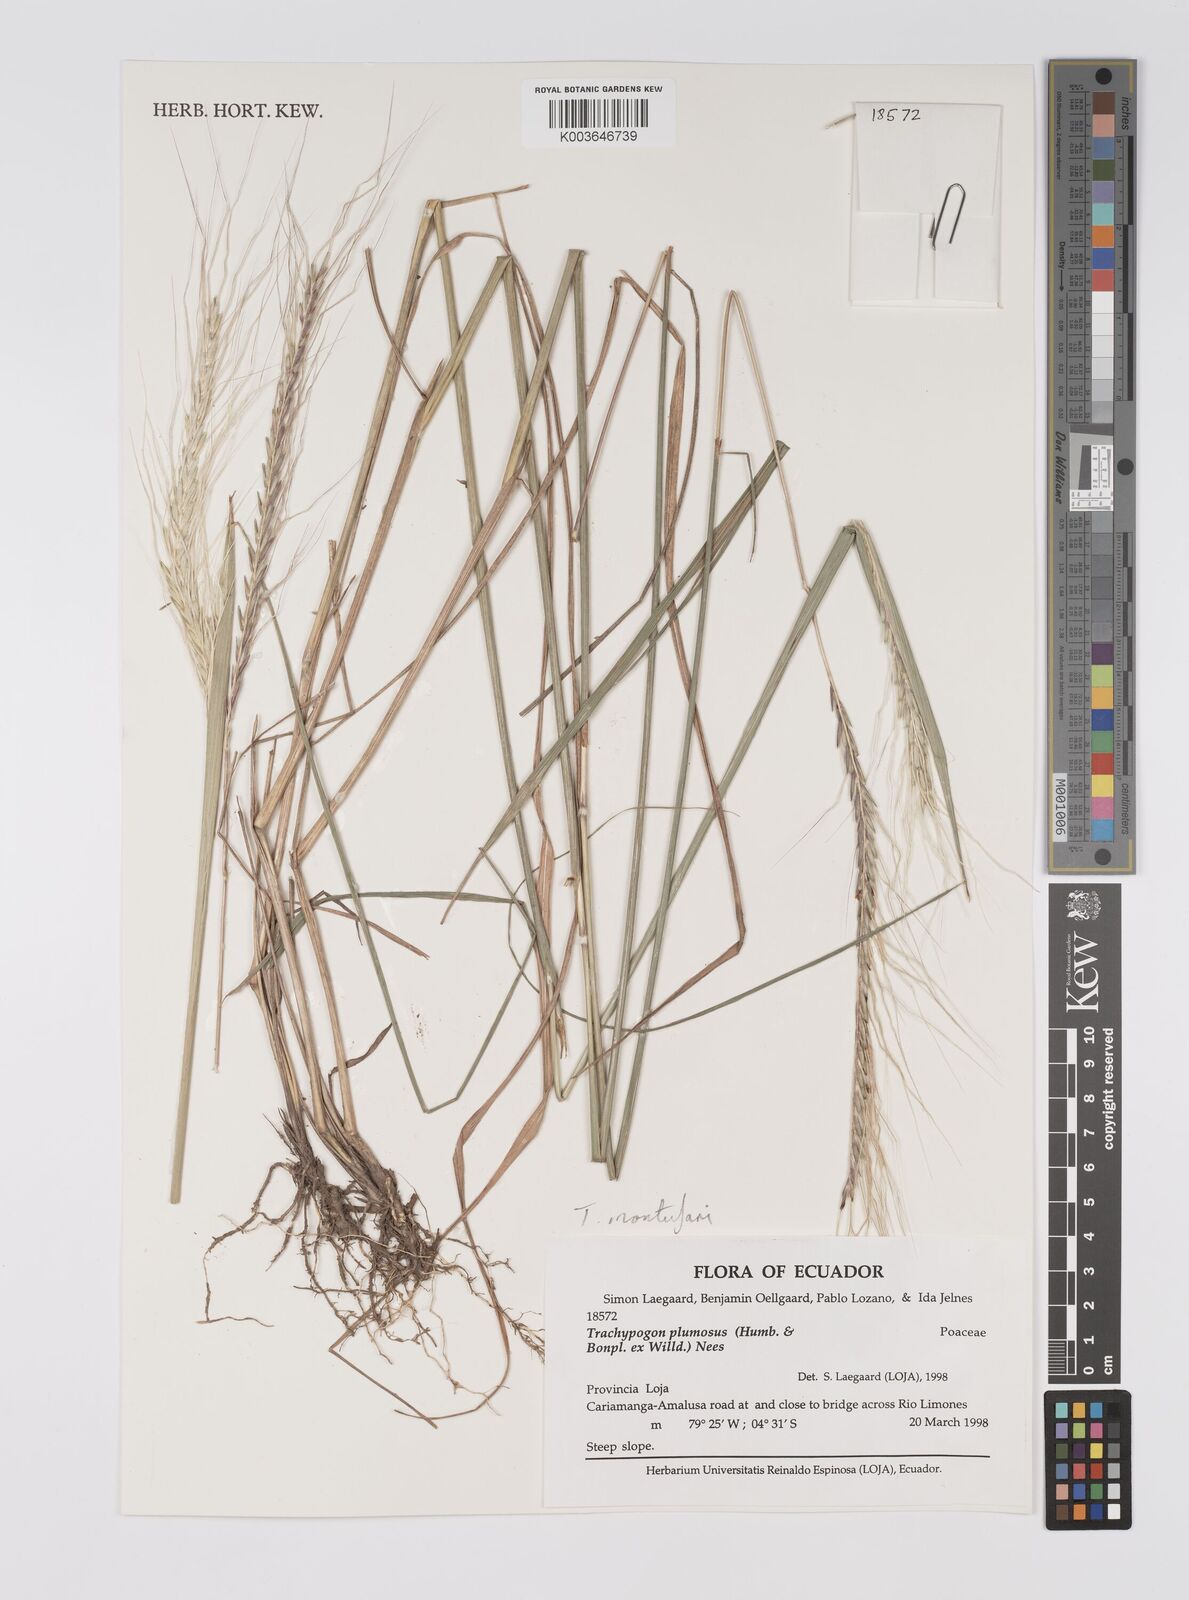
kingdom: Plantae
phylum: Tracheophyta
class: Liliopsida
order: Poales
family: Poaceae
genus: Trachypogon
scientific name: Trachypogon spicatus
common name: Crinkle-awn
